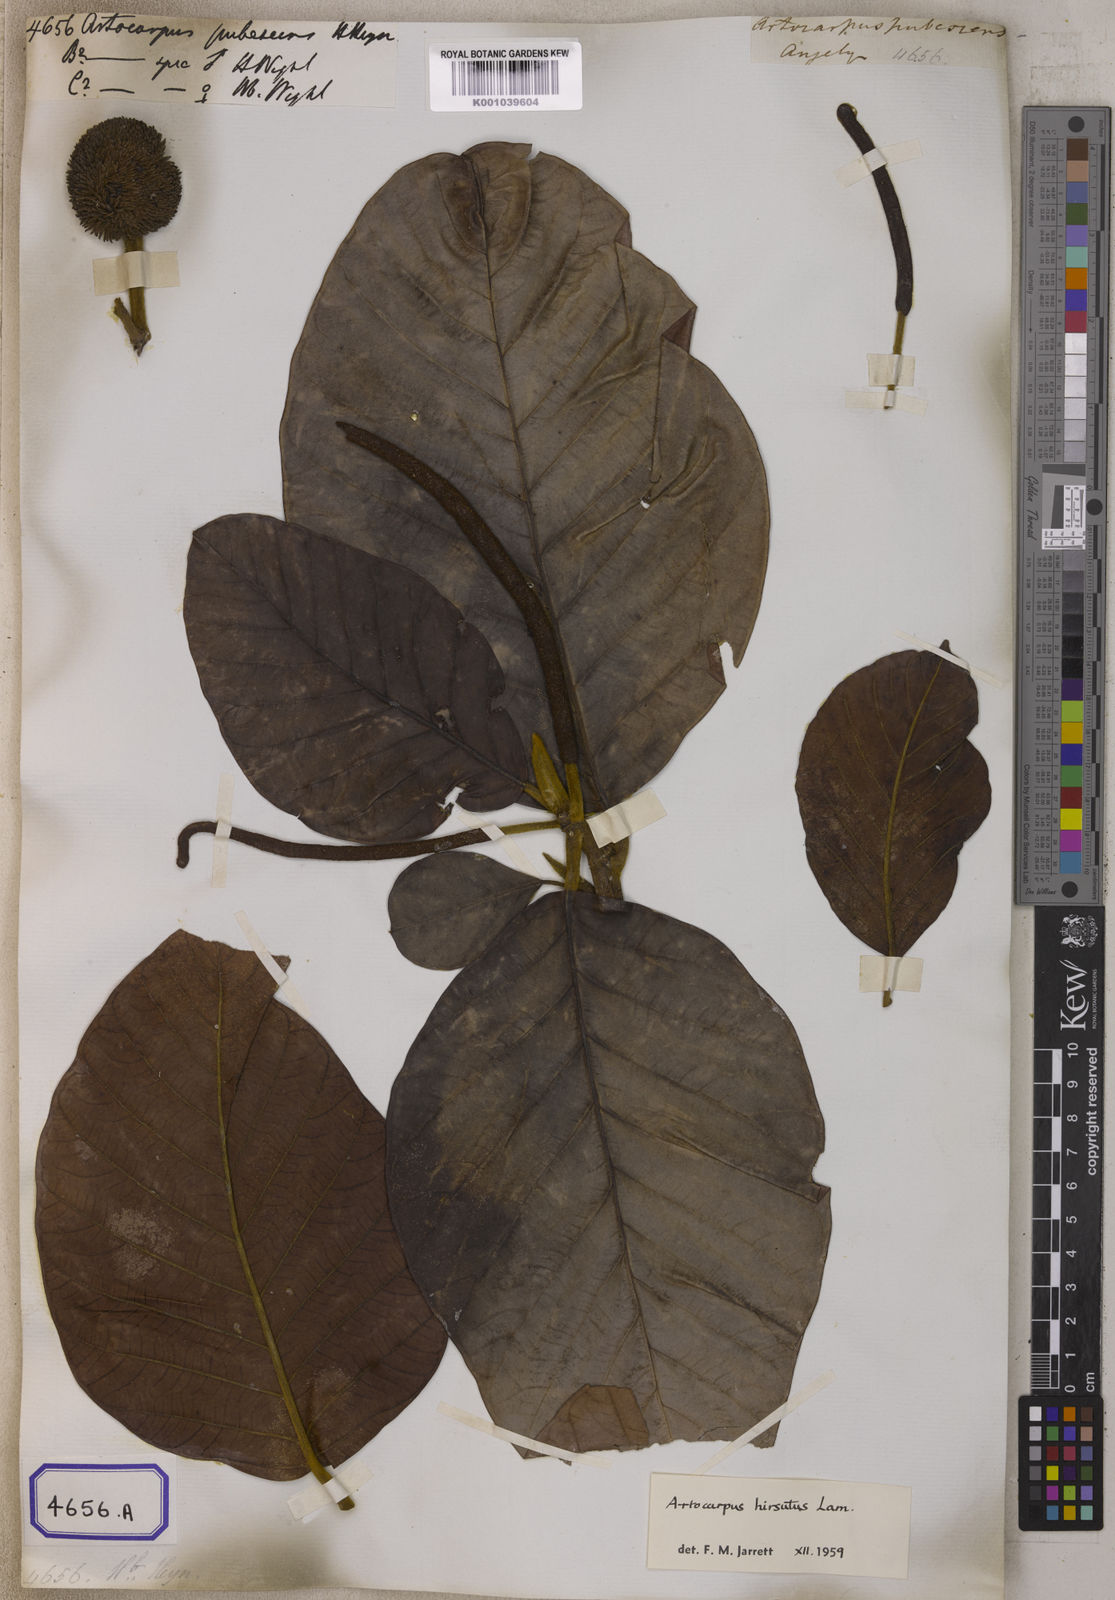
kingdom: Plantae
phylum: Tracheophyta
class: Magnoliopsida
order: Rosales
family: Moraceae
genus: Artocarpus
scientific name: Artocarpus hirsutus
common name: Hairy bread-fruit tree
